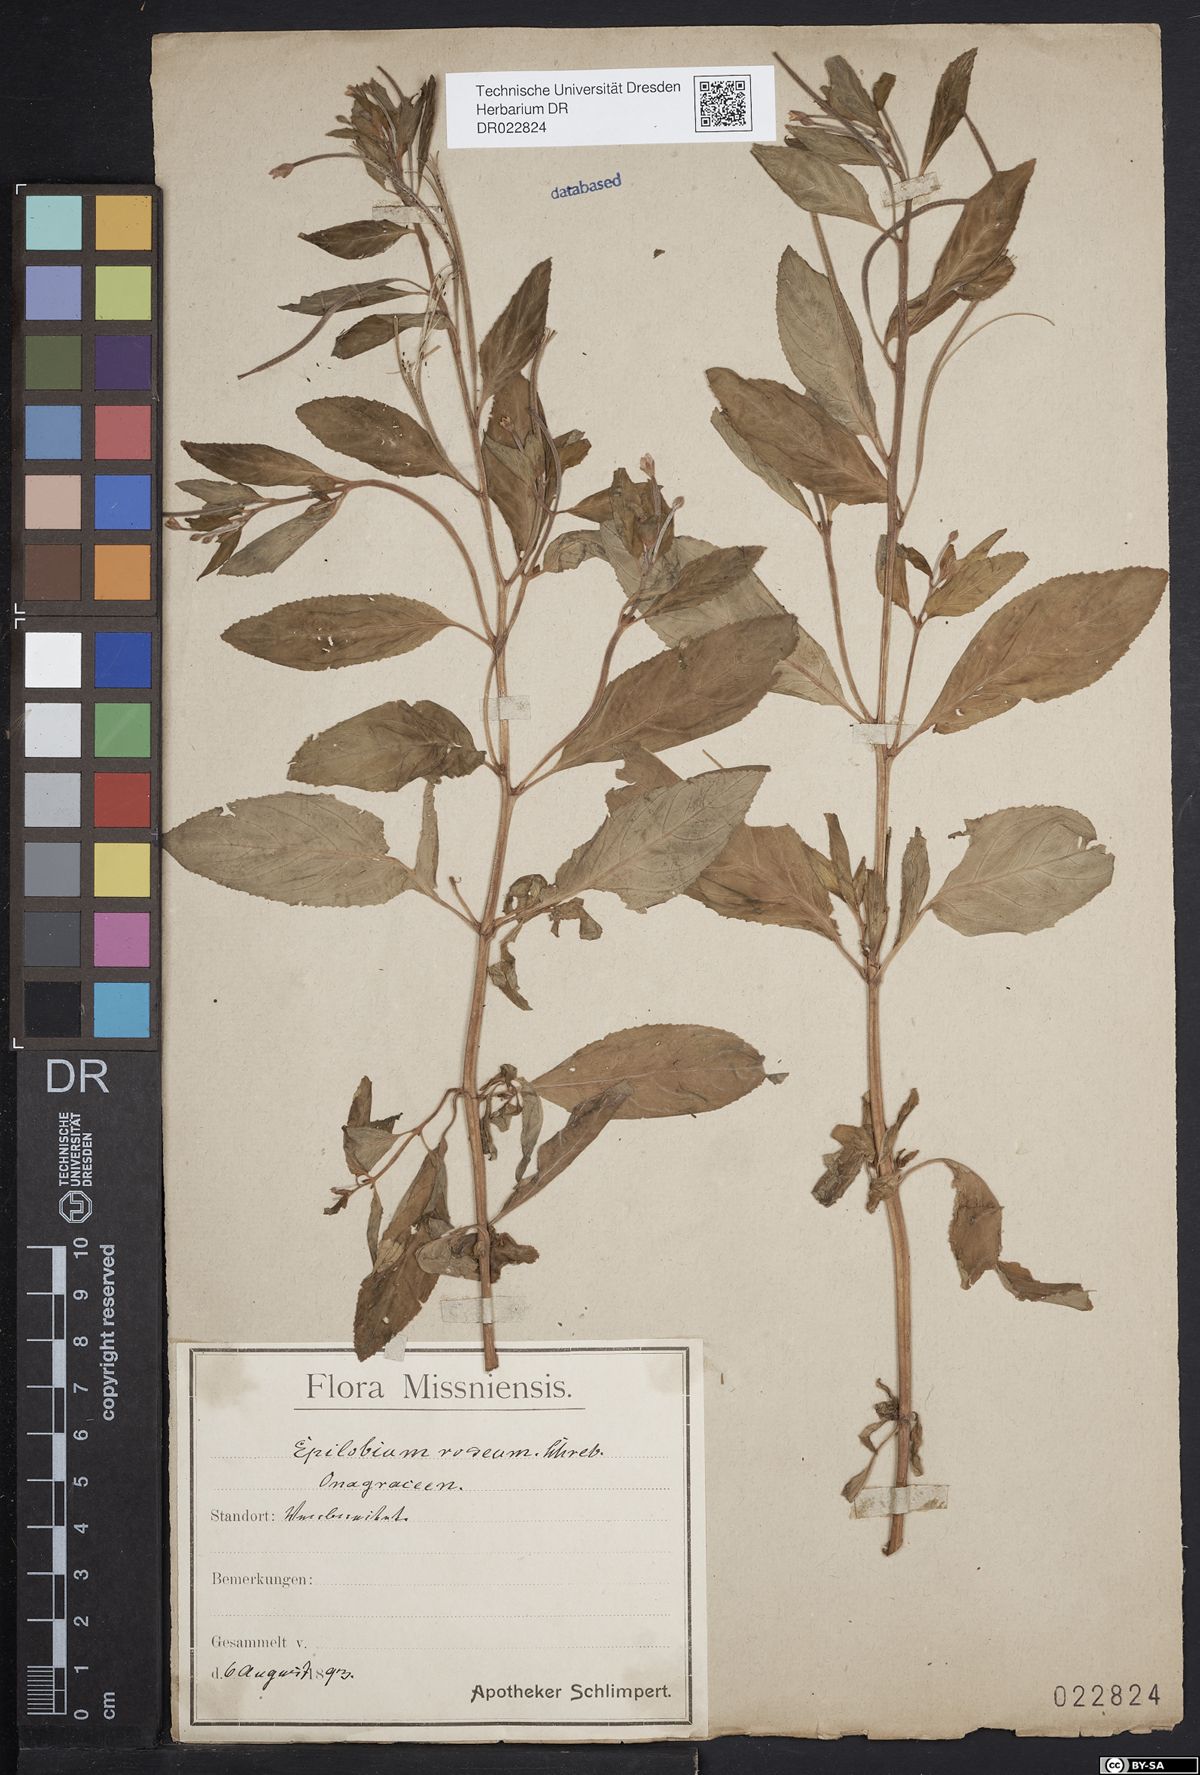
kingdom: Plantae
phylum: Tracheophyta
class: Magnoliopsida
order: Myrtales
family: Onagraceae
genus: Epilobium
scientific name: Epilobium roseum
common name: Pale willowherb
